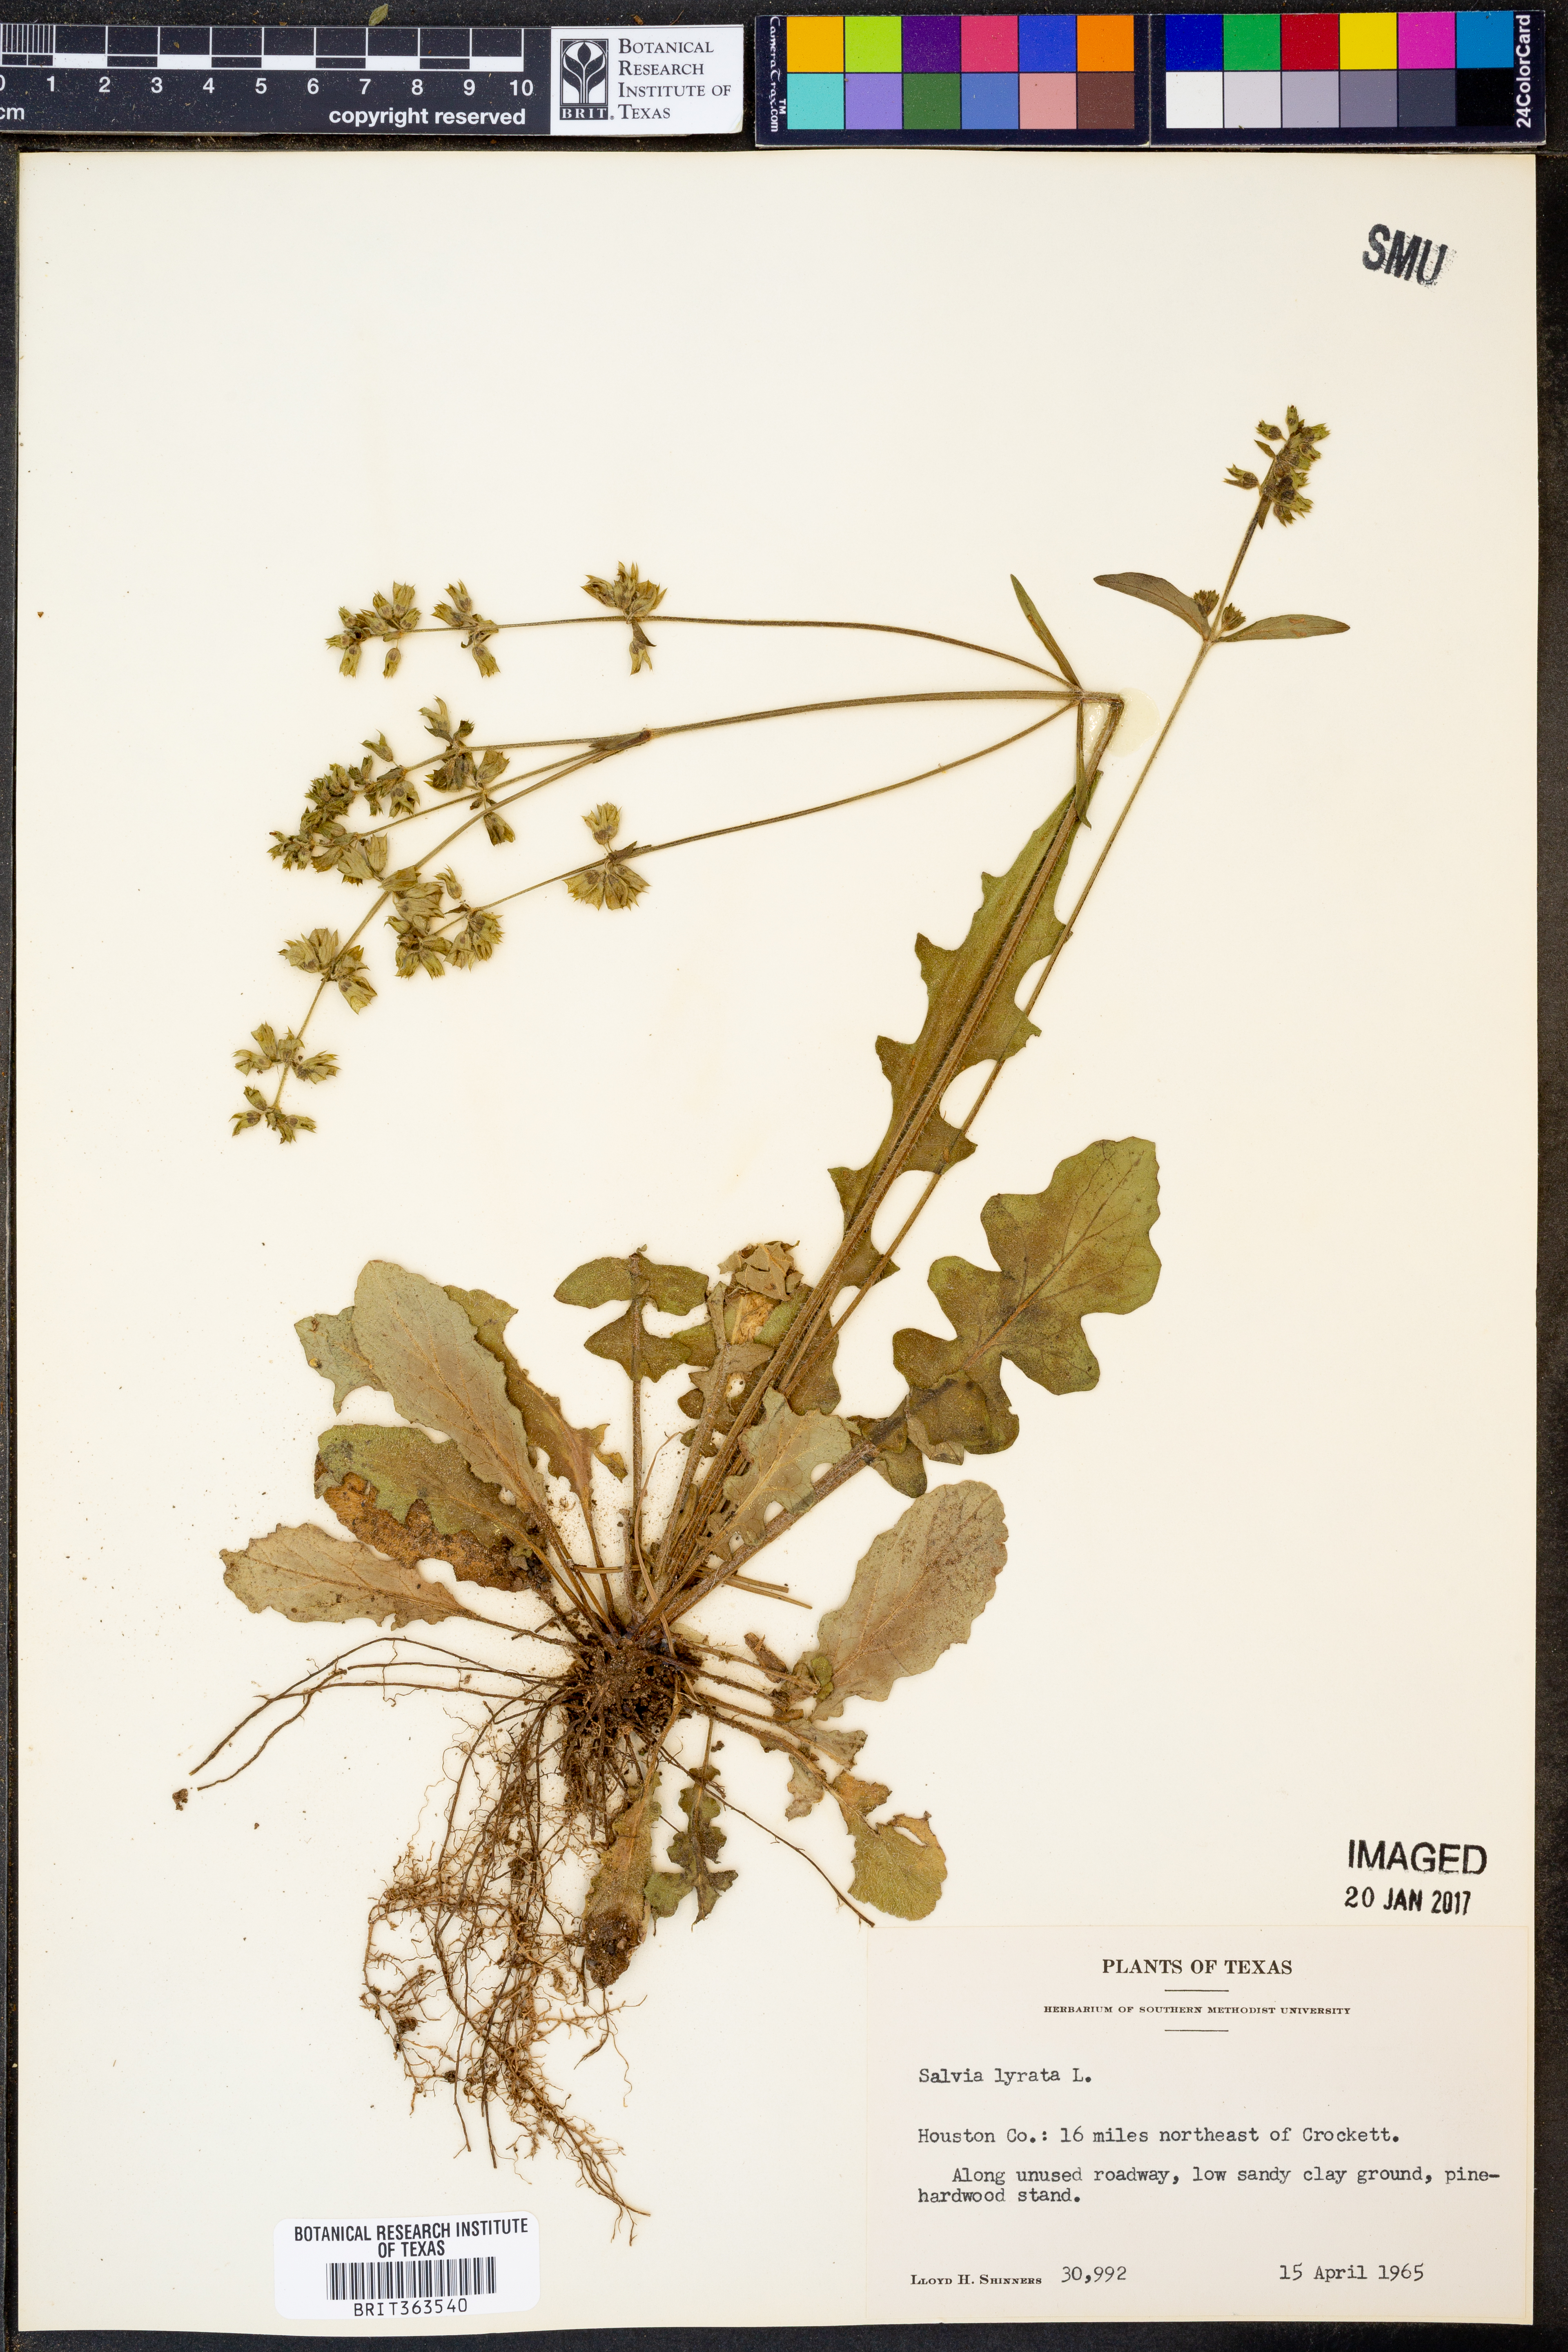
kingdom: Plantae
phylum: Tracheophyta
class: Magnoliopsida
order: Lamiales
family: Lamiaceae
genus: Salvia
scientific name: Salvia lyrata
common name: Cancerweed
